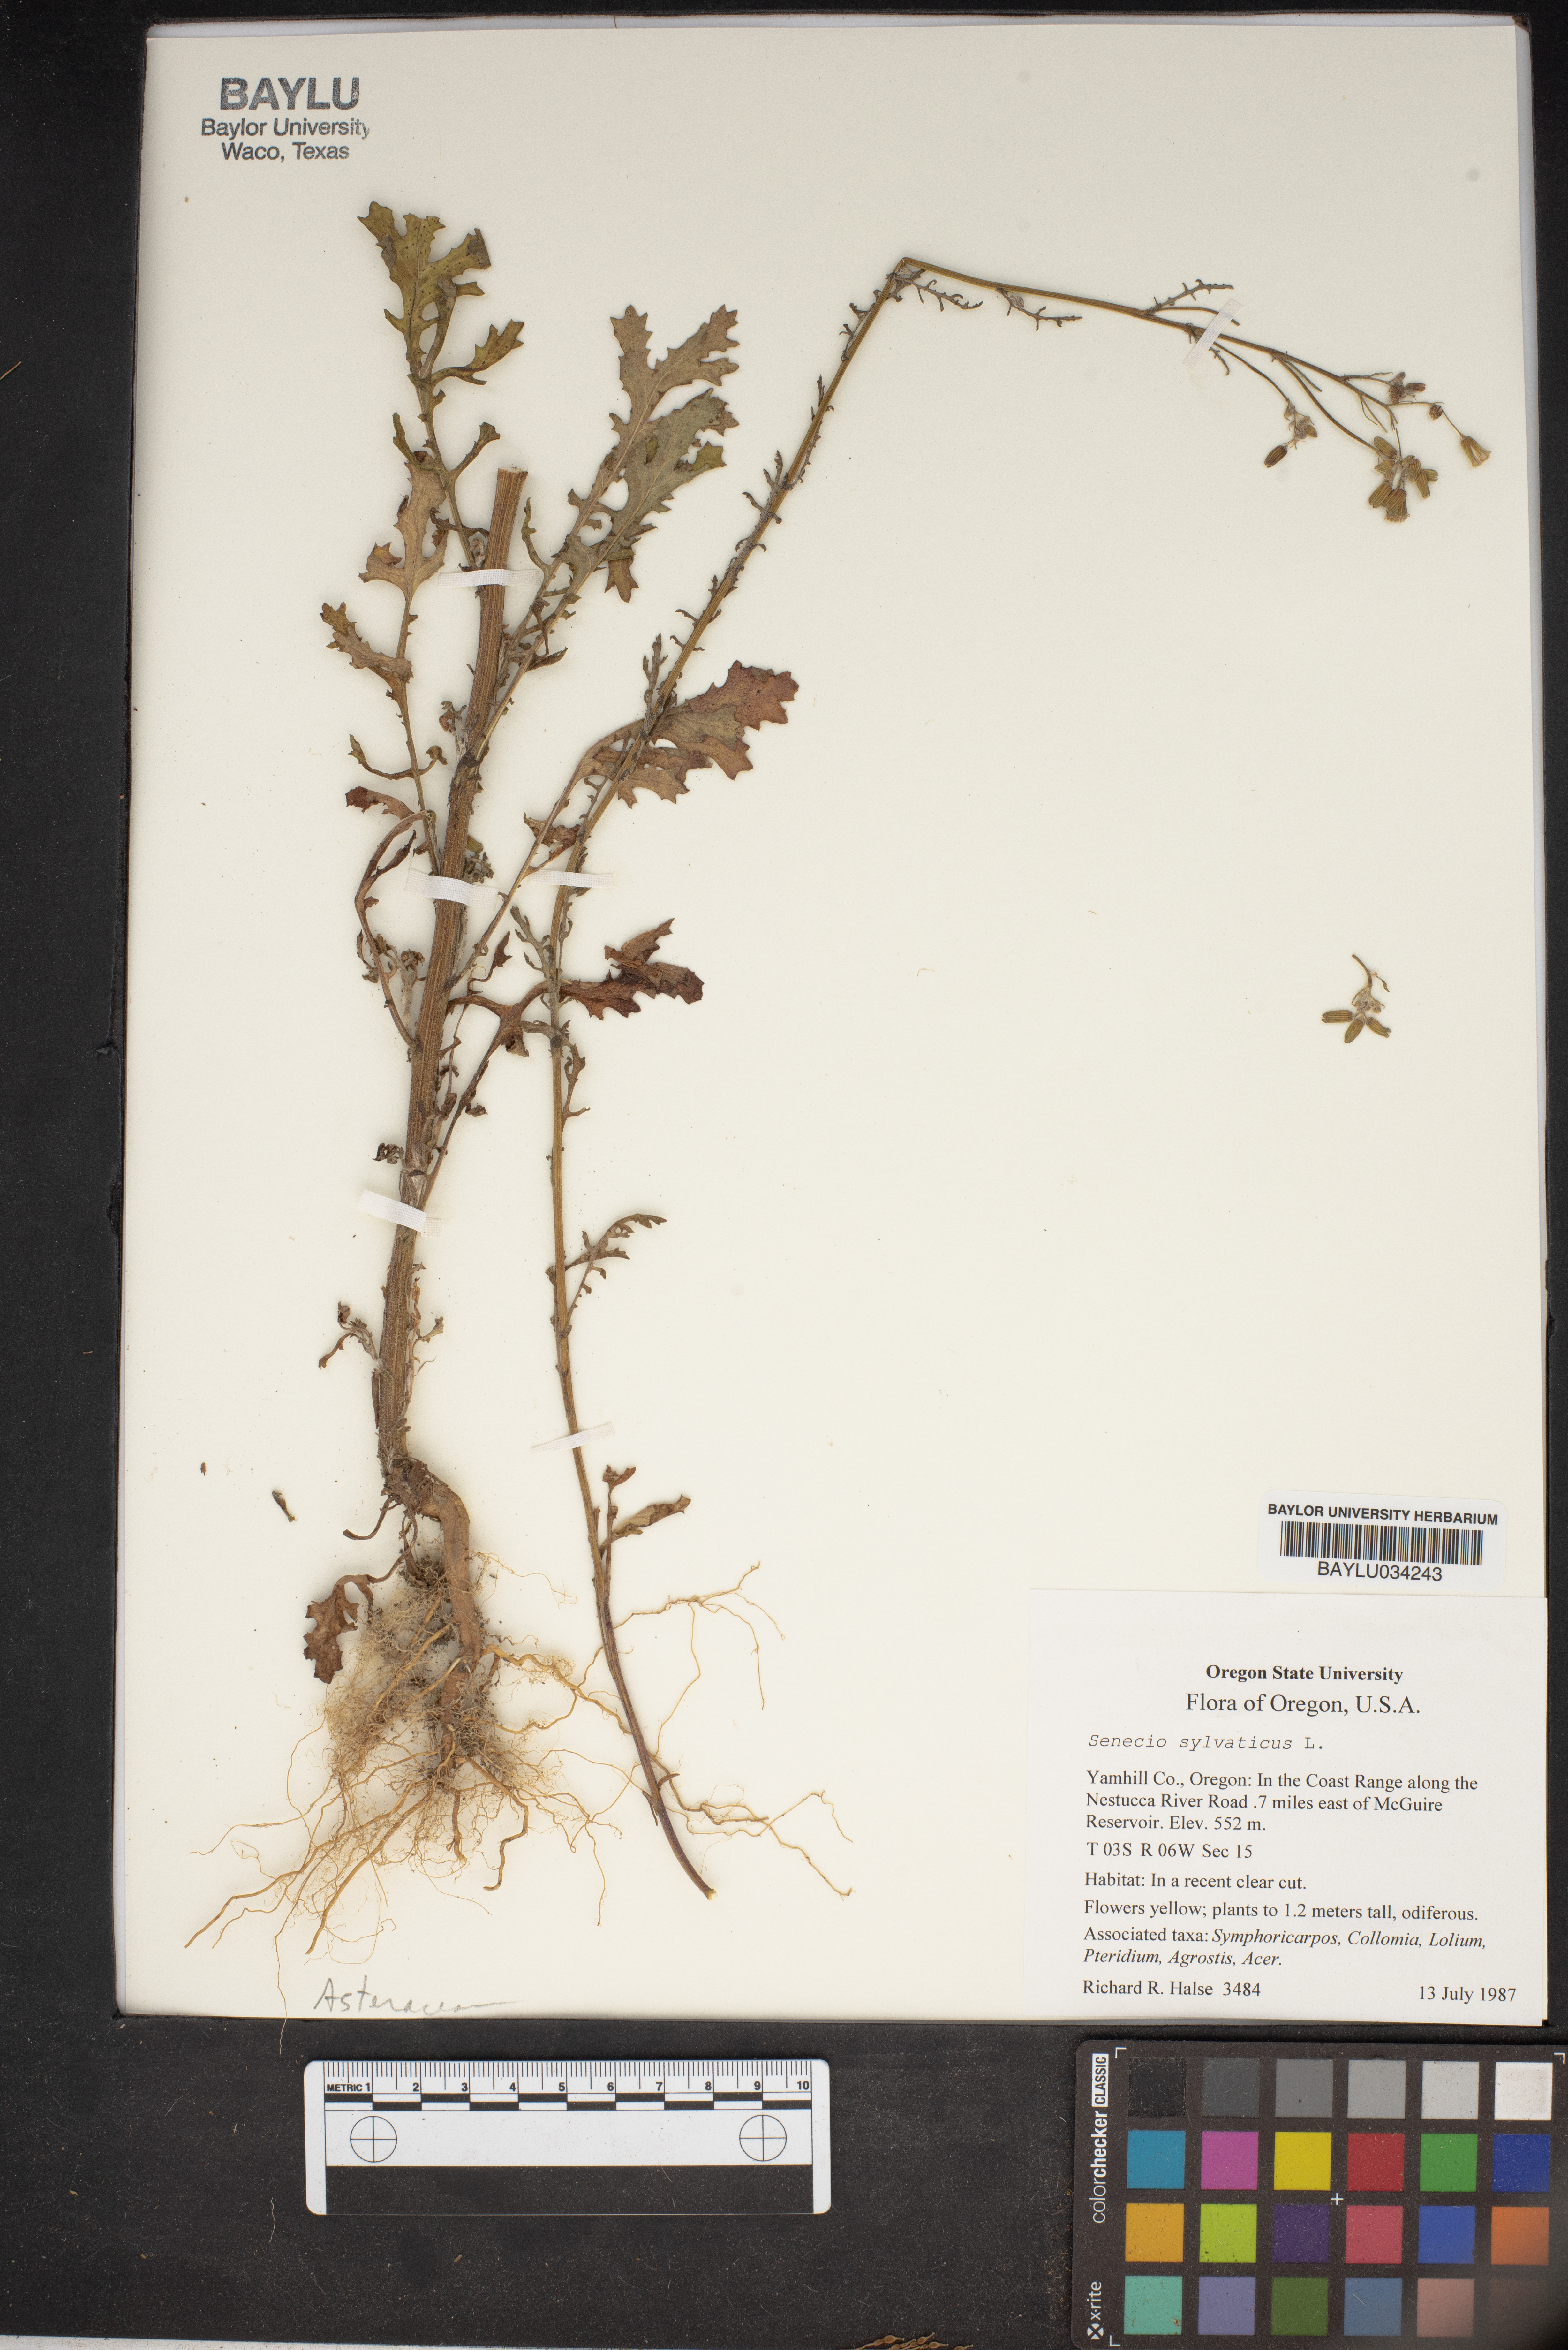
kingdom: Plantae
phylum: Tracheophyta
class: Magnoliopsida
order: Asterales
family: Asteraceae
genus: Senecio
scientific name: Senecio sylvaticus
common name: Woodland ragwort
